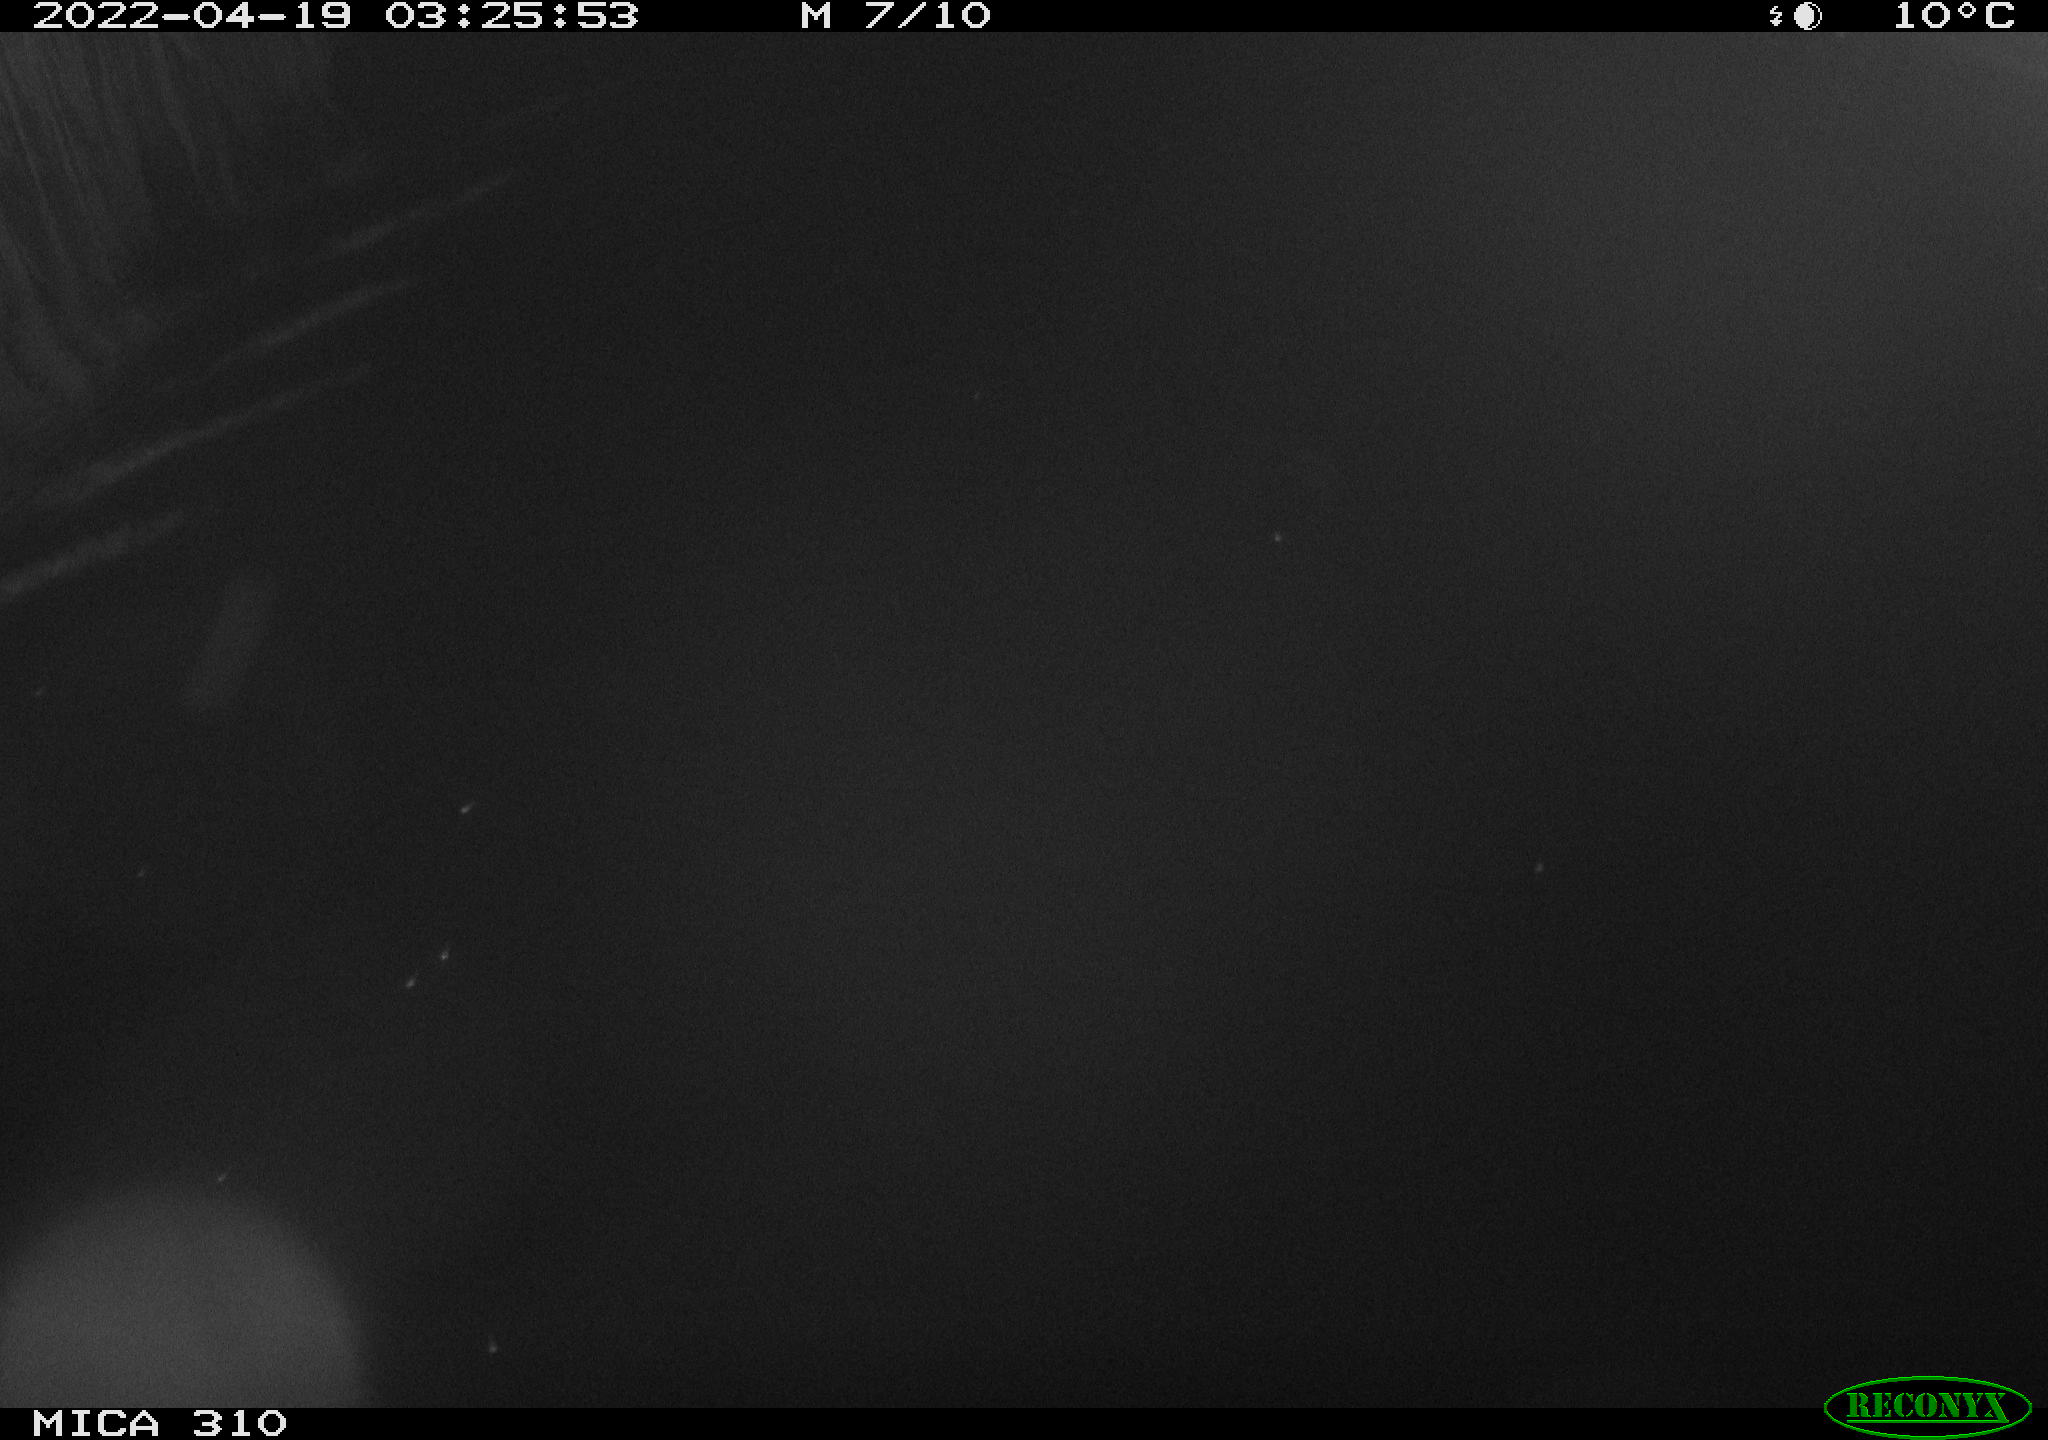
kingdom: Animalia
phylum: Chordata
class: Aves
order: Anseriformes
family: Anatidae
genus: Anas
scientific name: Anas platyrhynchos
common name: Mallard
